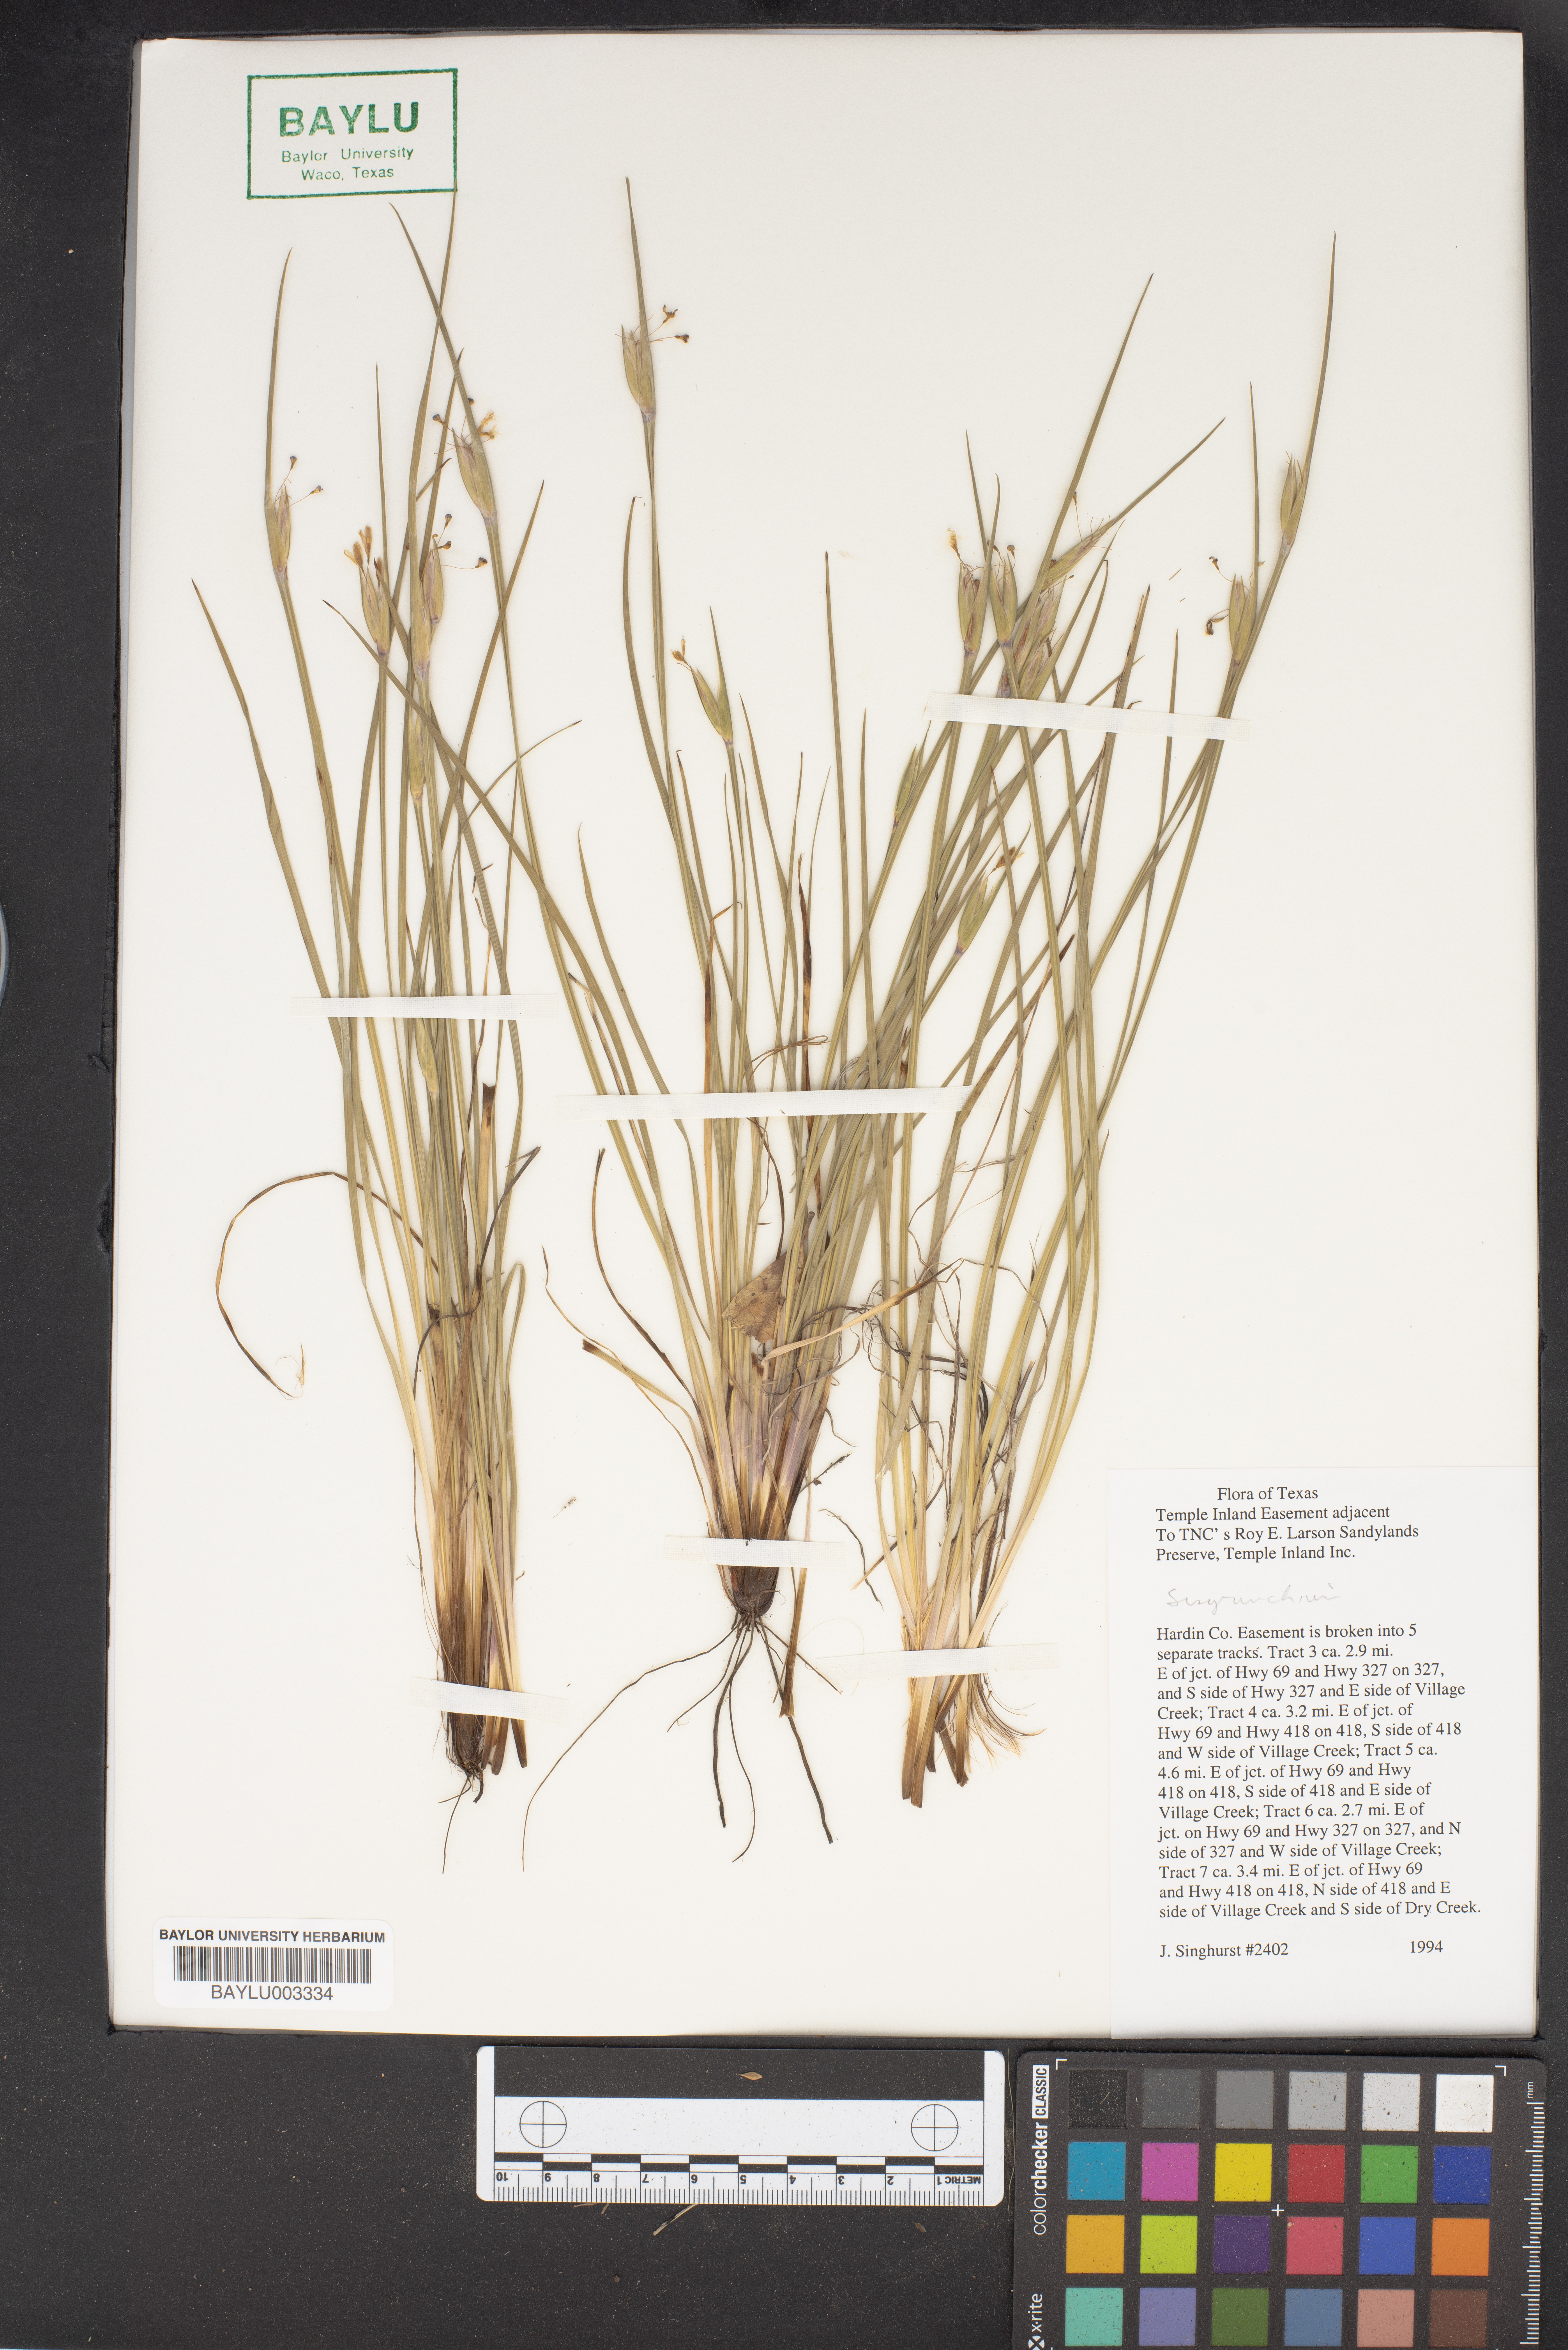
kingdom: Plantae
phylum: Tracheophyta
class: Liliopsida
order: Asparagales
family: Iridaceae
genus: Sisyrenchium
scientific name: Sisyrenchium
